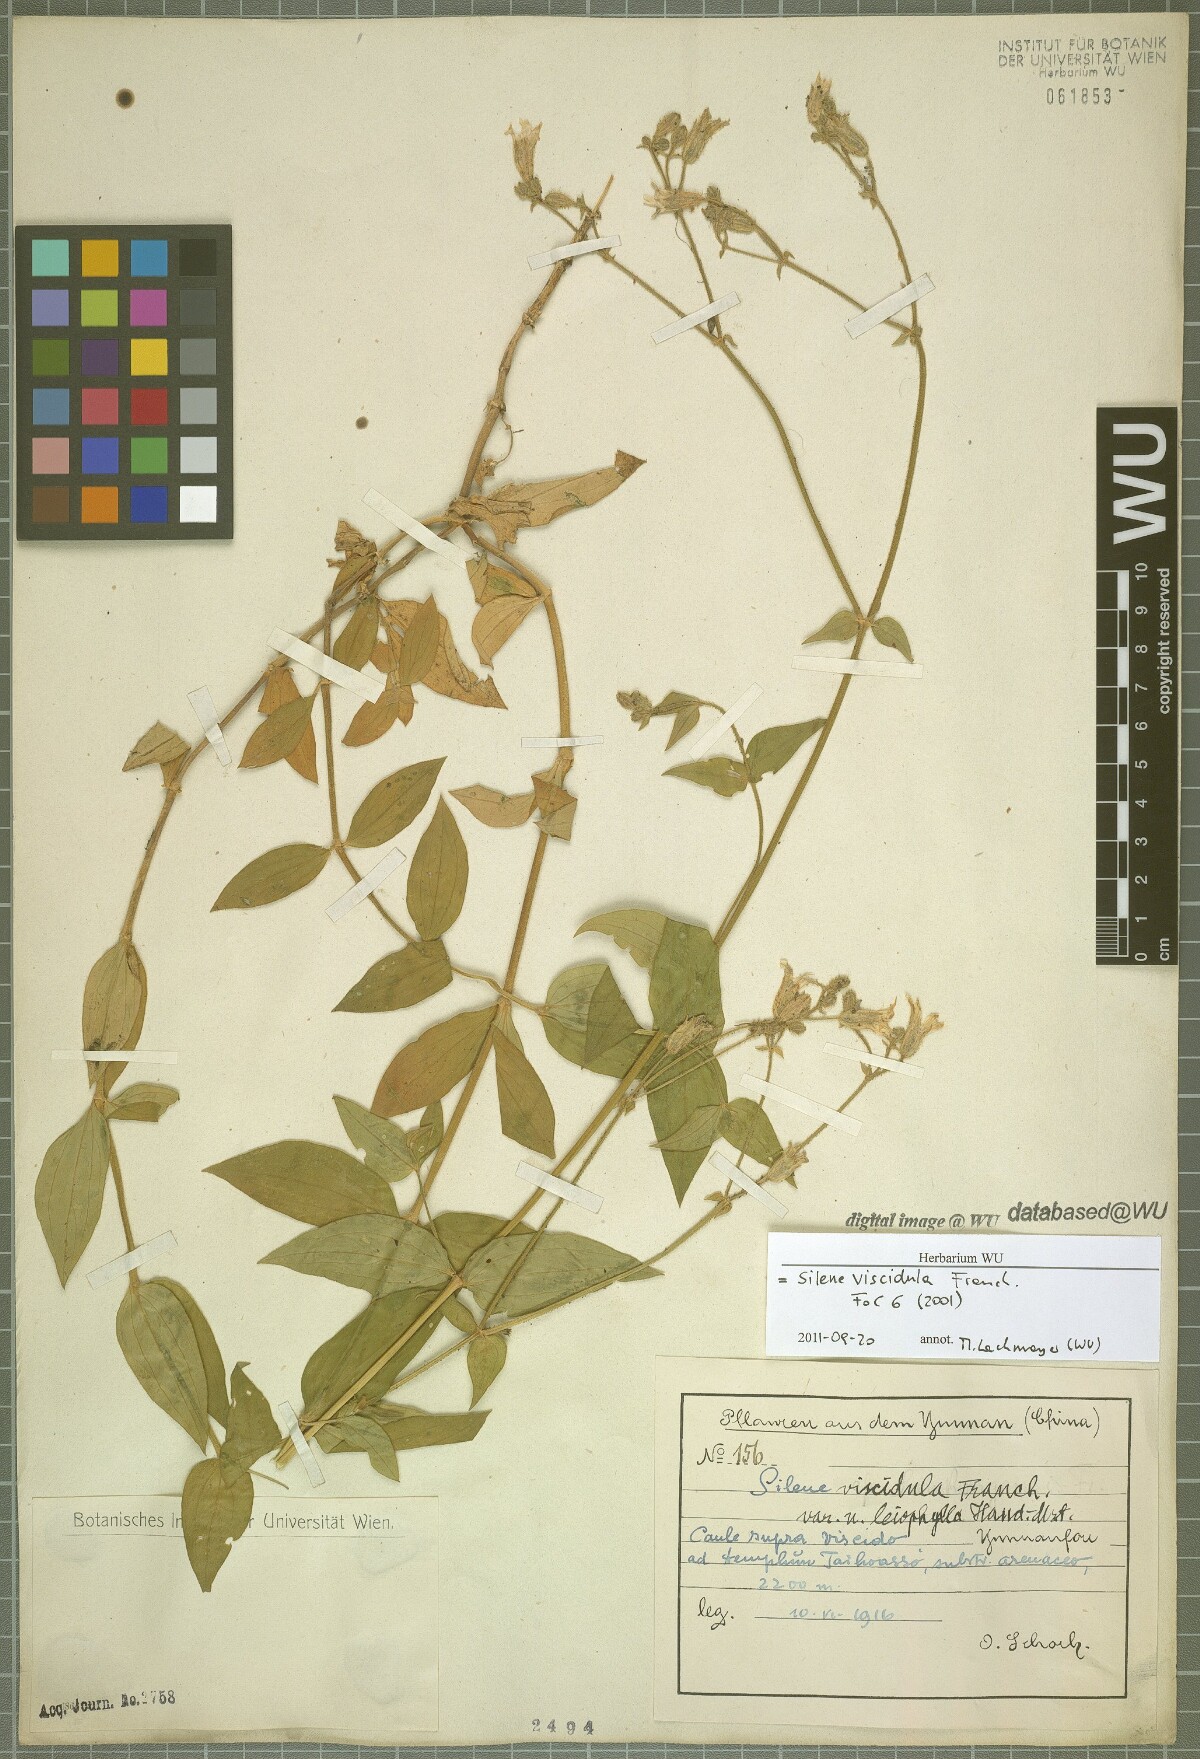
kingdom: Plantae
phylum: Tracheophyta
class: Magnoliopsida
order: Caryophyllales
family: Caryophyllaceae
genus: Silene
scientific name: Silene viscidula
